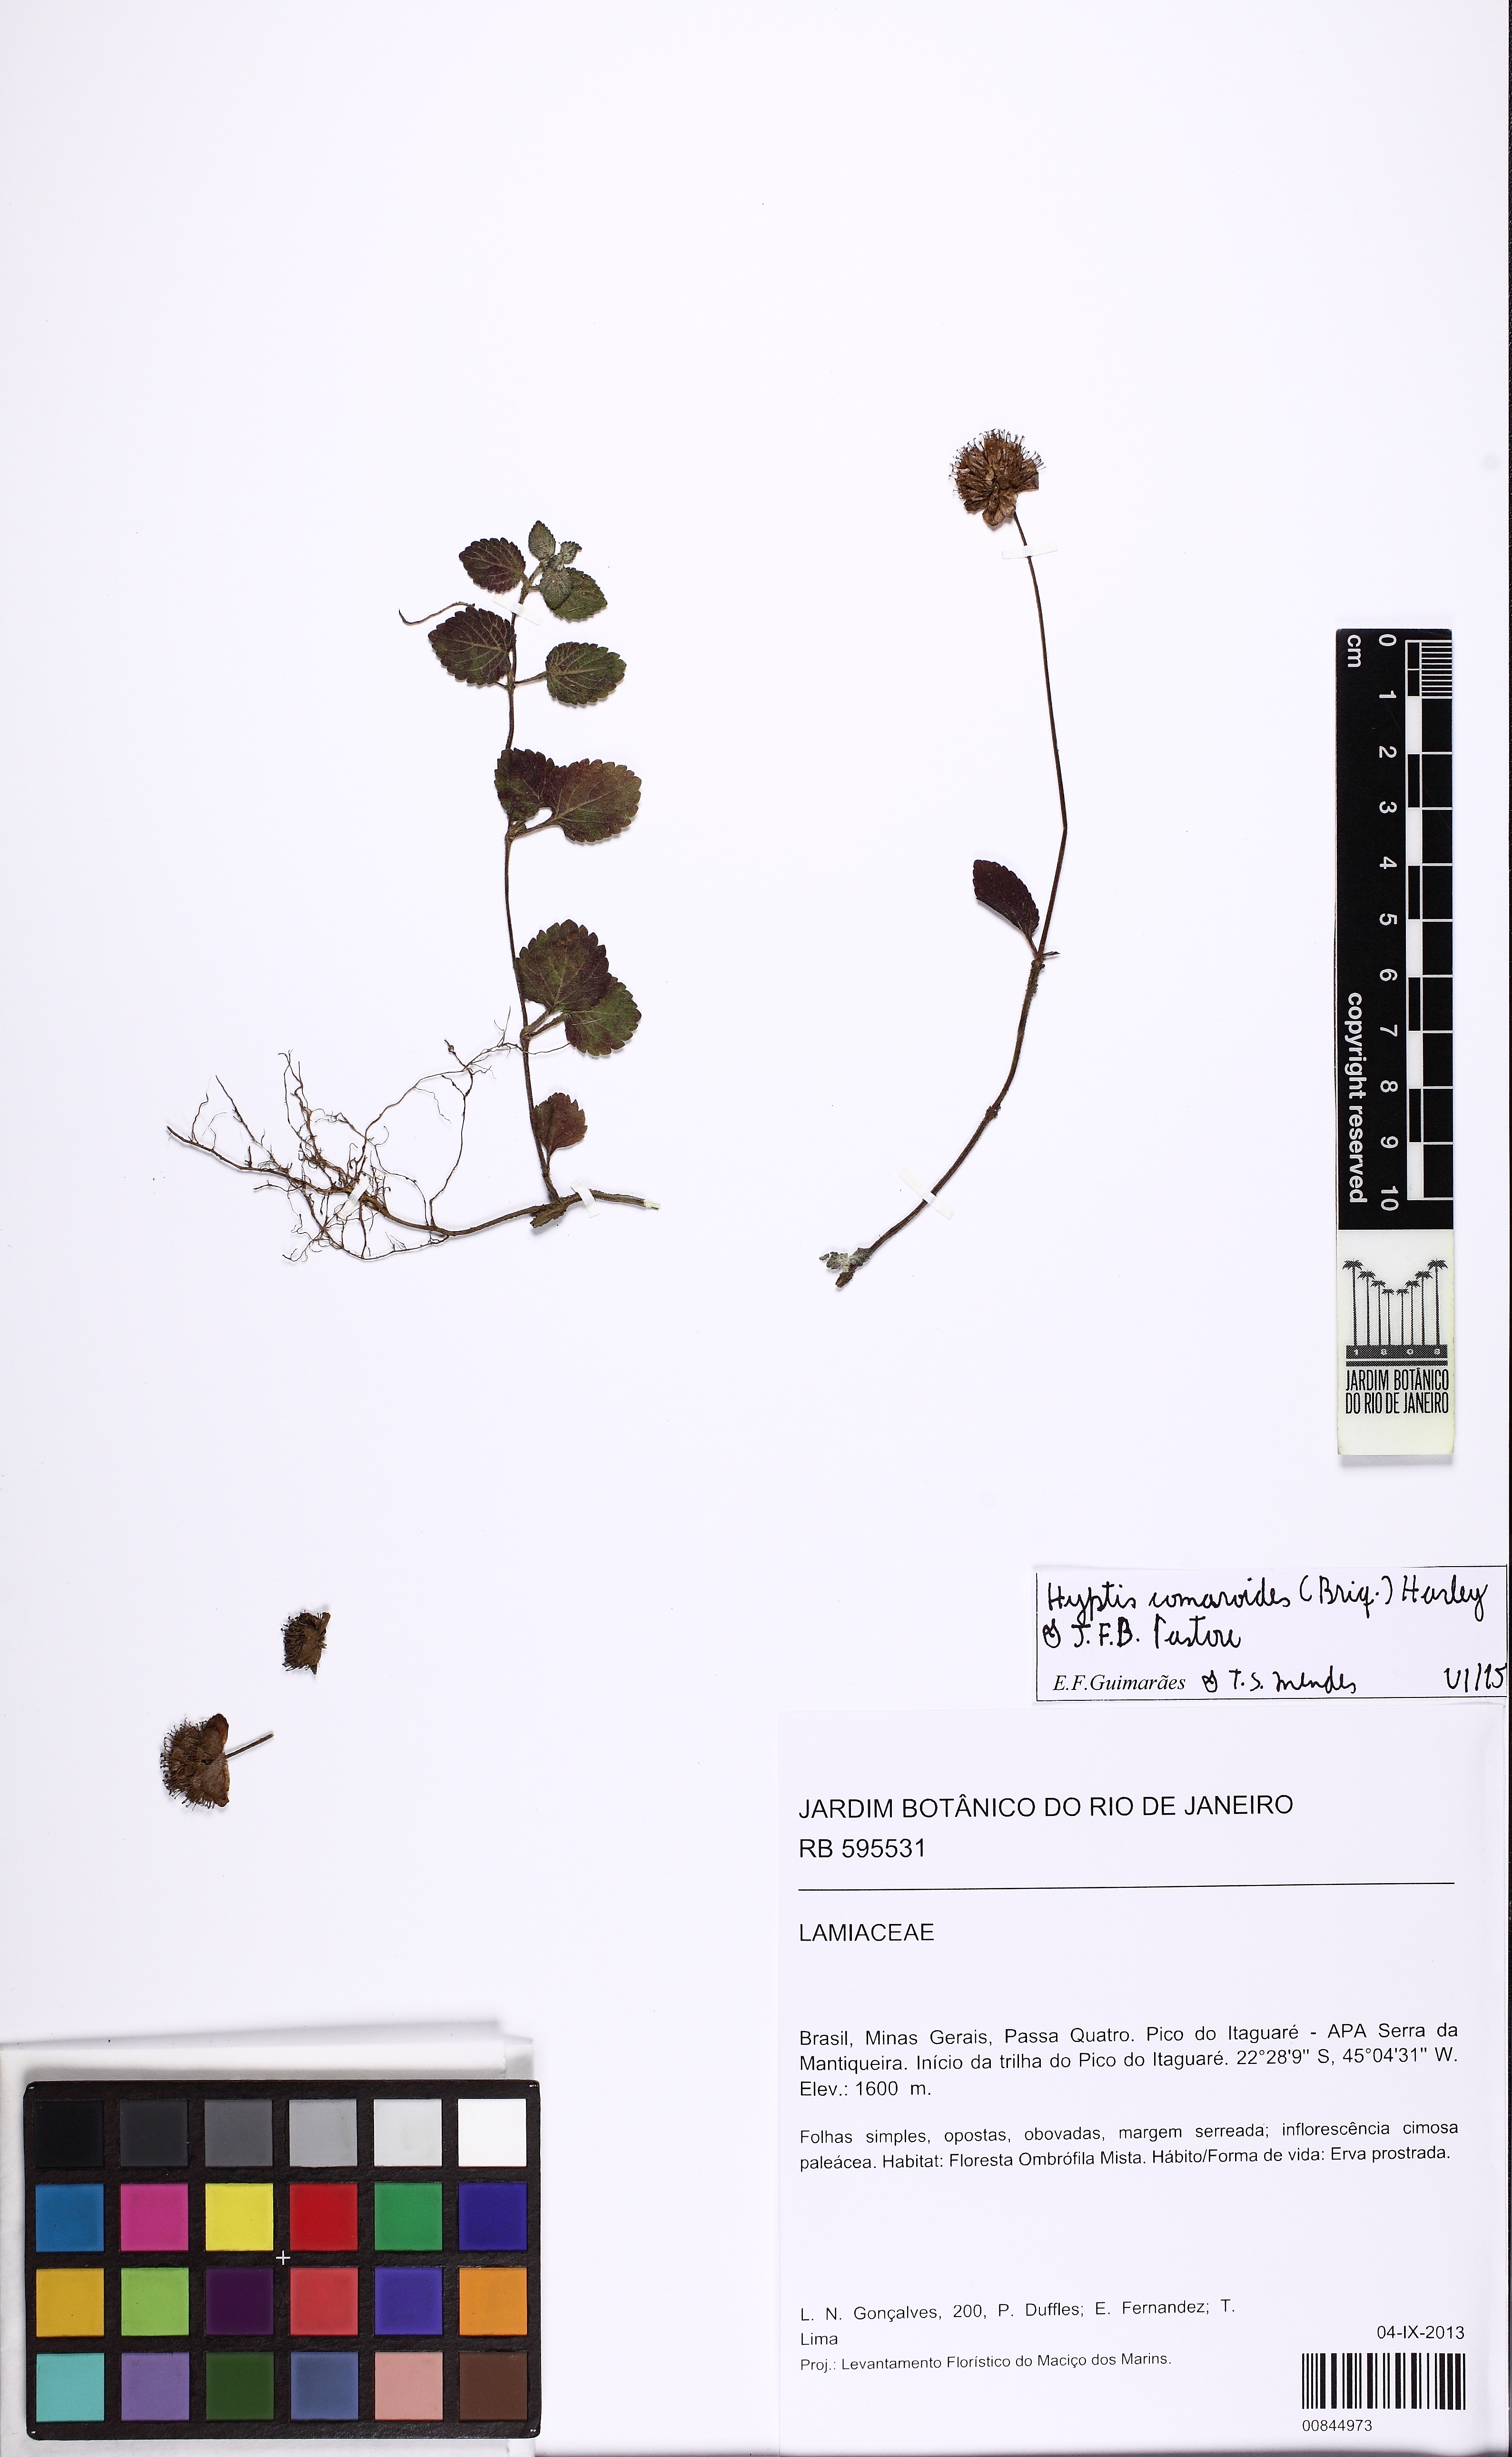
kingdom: Plantae
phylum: Tracheophyta
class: Magnoliopsida
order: Lamiales
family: Lamiaceae
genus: Hyptis
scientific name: Hyptis comaroides
